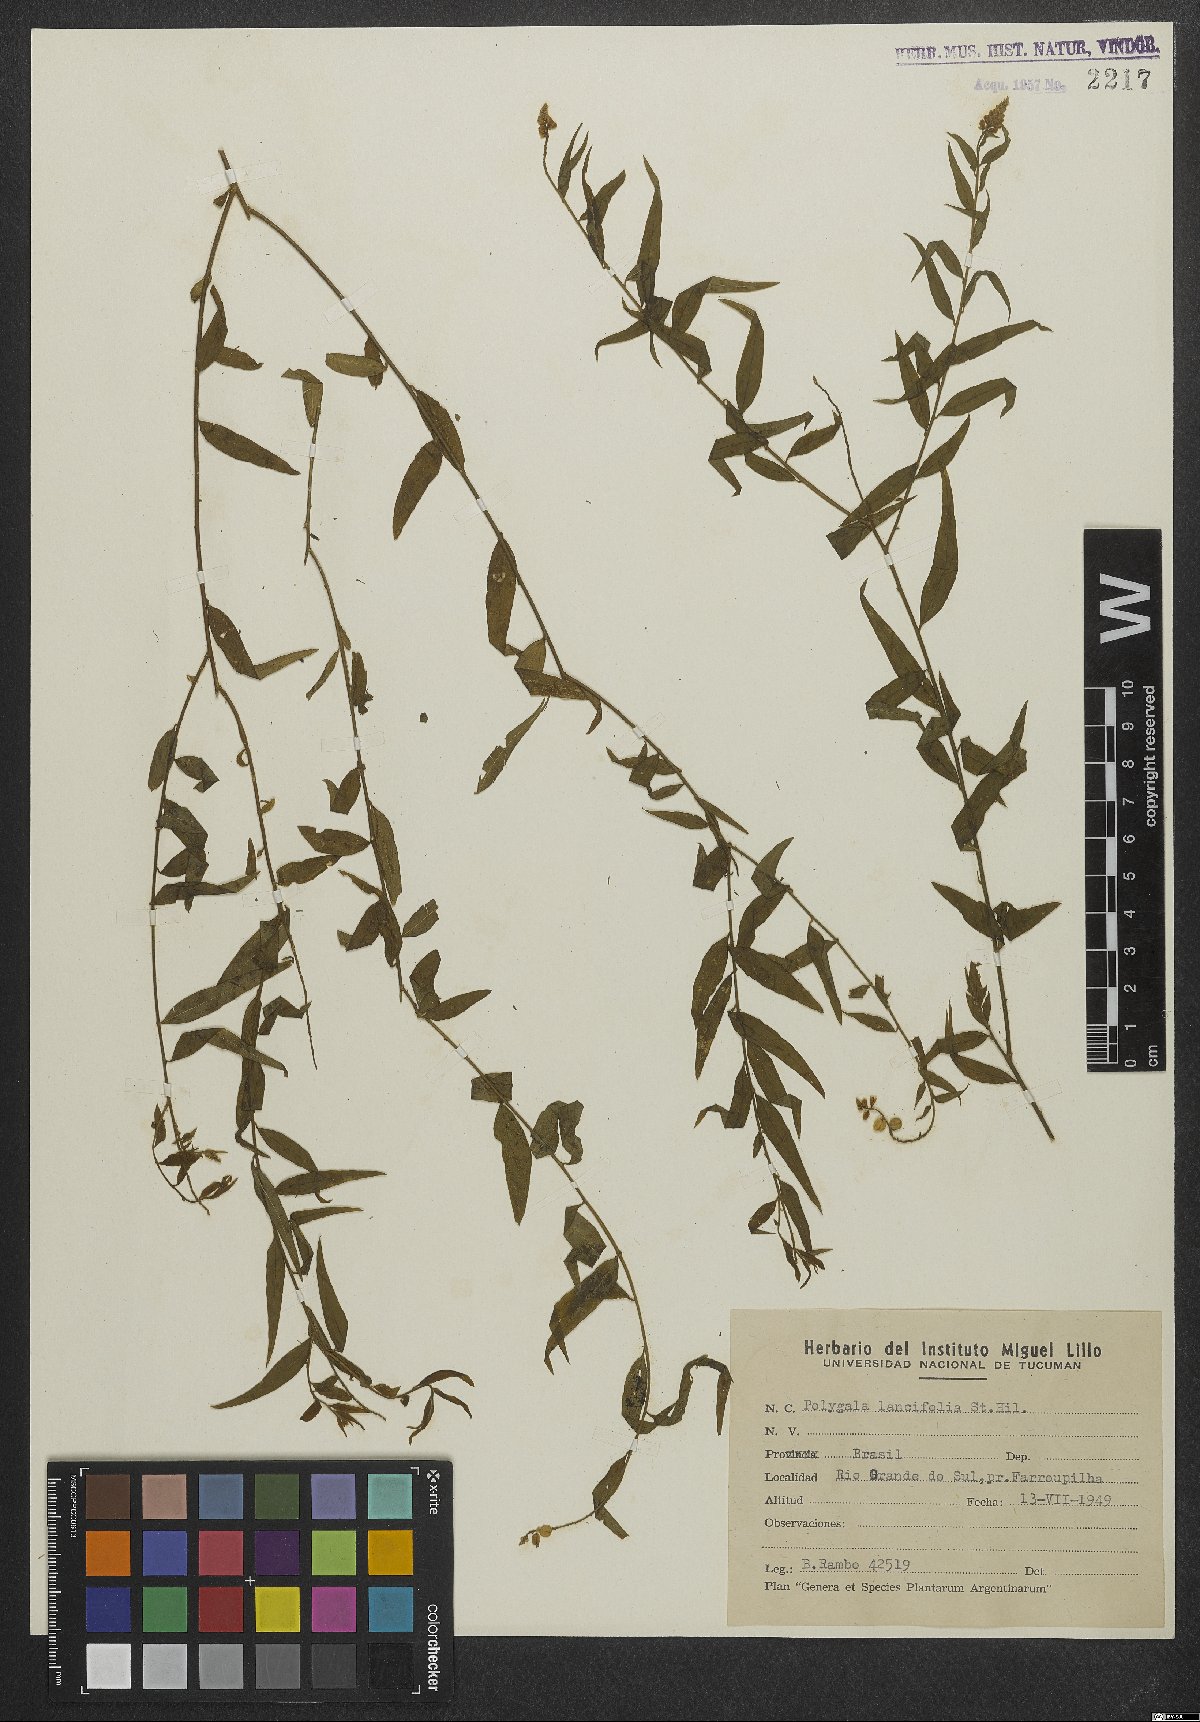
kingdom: Plantae
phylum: Tracheophyta
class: Magnoliopsida
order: Fabales
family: Polygalaceae
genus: Polygala
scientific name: Polygala lancifolia
